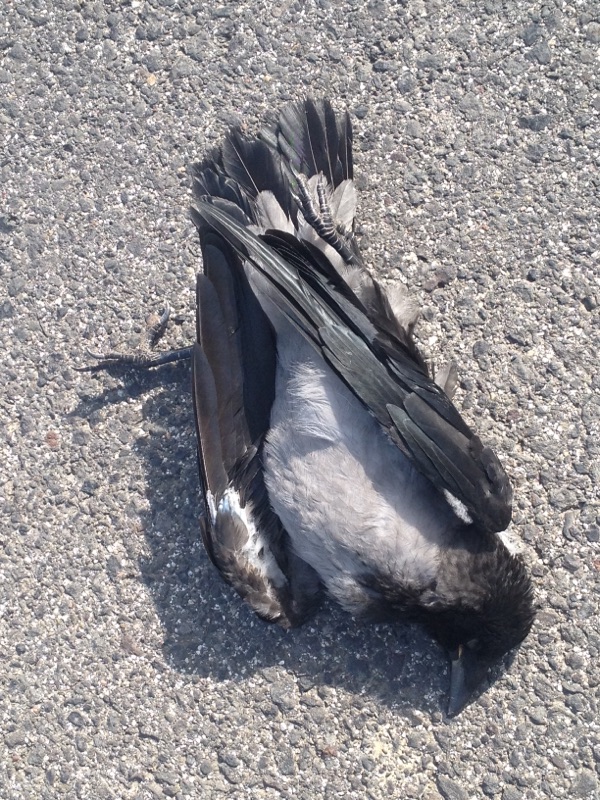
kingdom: Animalia
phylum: Chordata
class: Aves
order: Passeriformes
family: Corvidae
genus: Corvus
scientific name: Corvus corone
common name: Carrion crow
